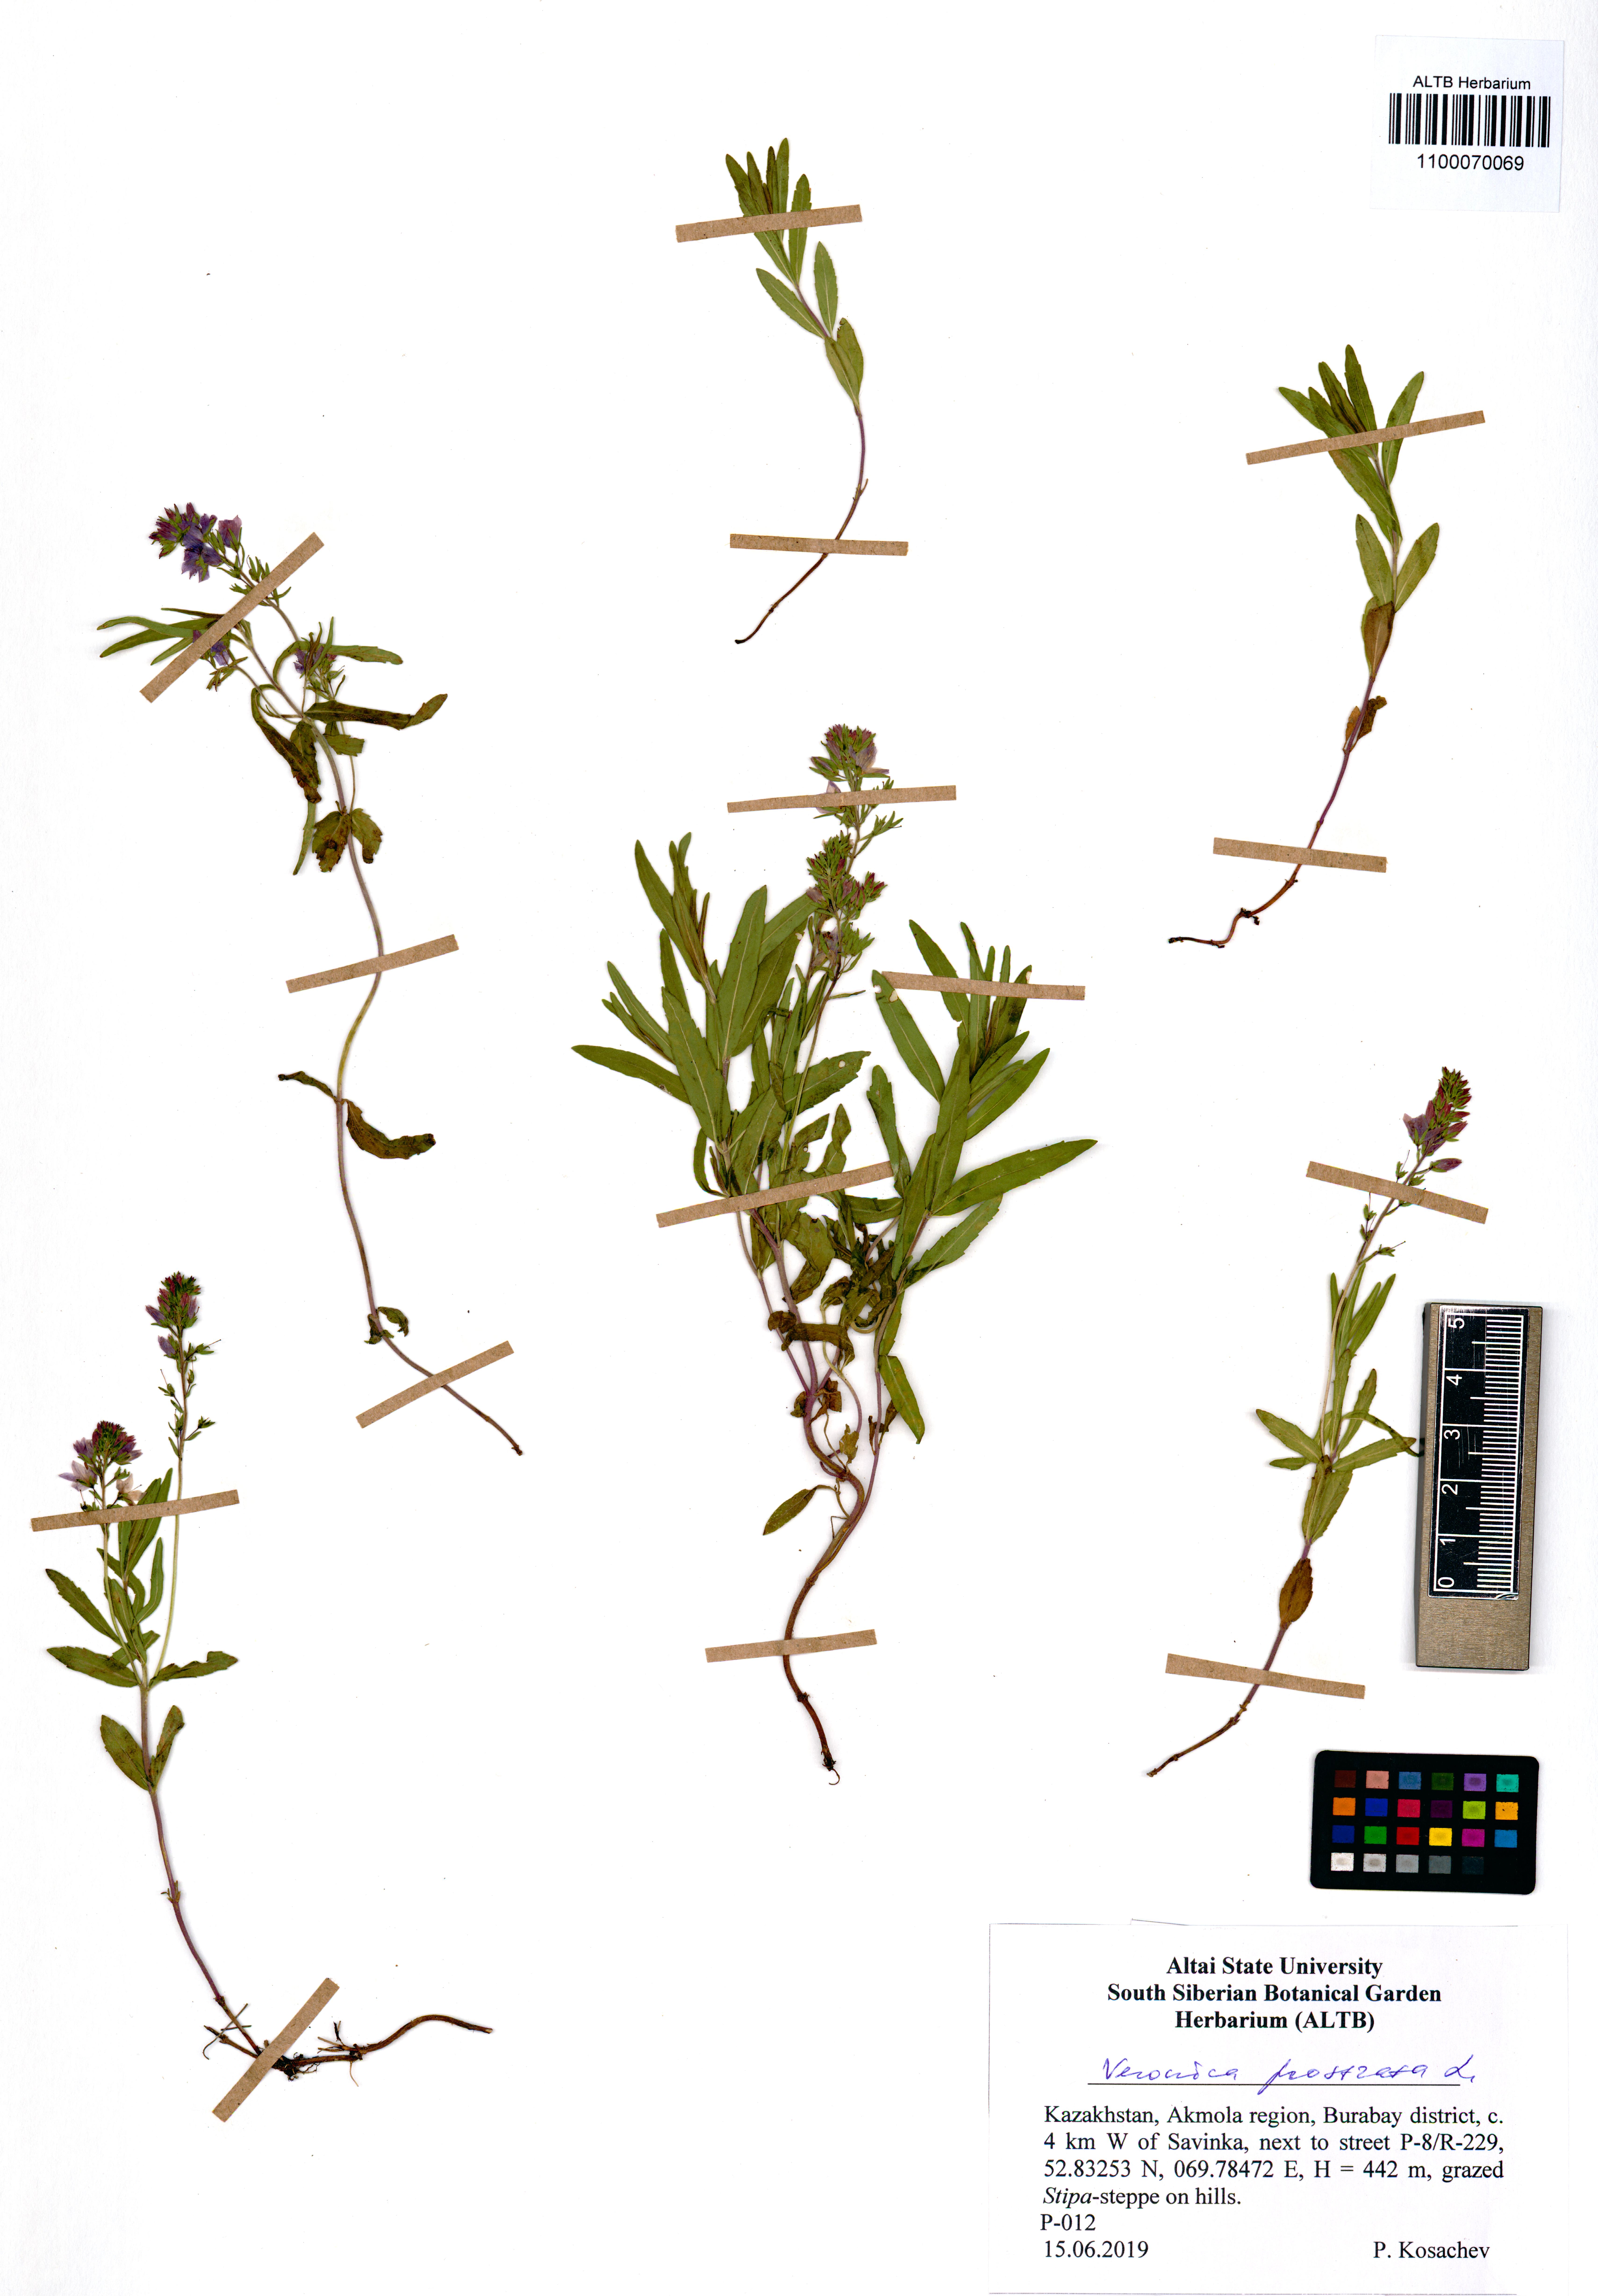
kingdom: Plantae
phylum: Tracheophyta
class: Magnoliopsida
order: Lamiales
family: Plantaginaceae
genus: Veronica
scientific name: Veronica prostrata
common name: Prostrate speedwell
